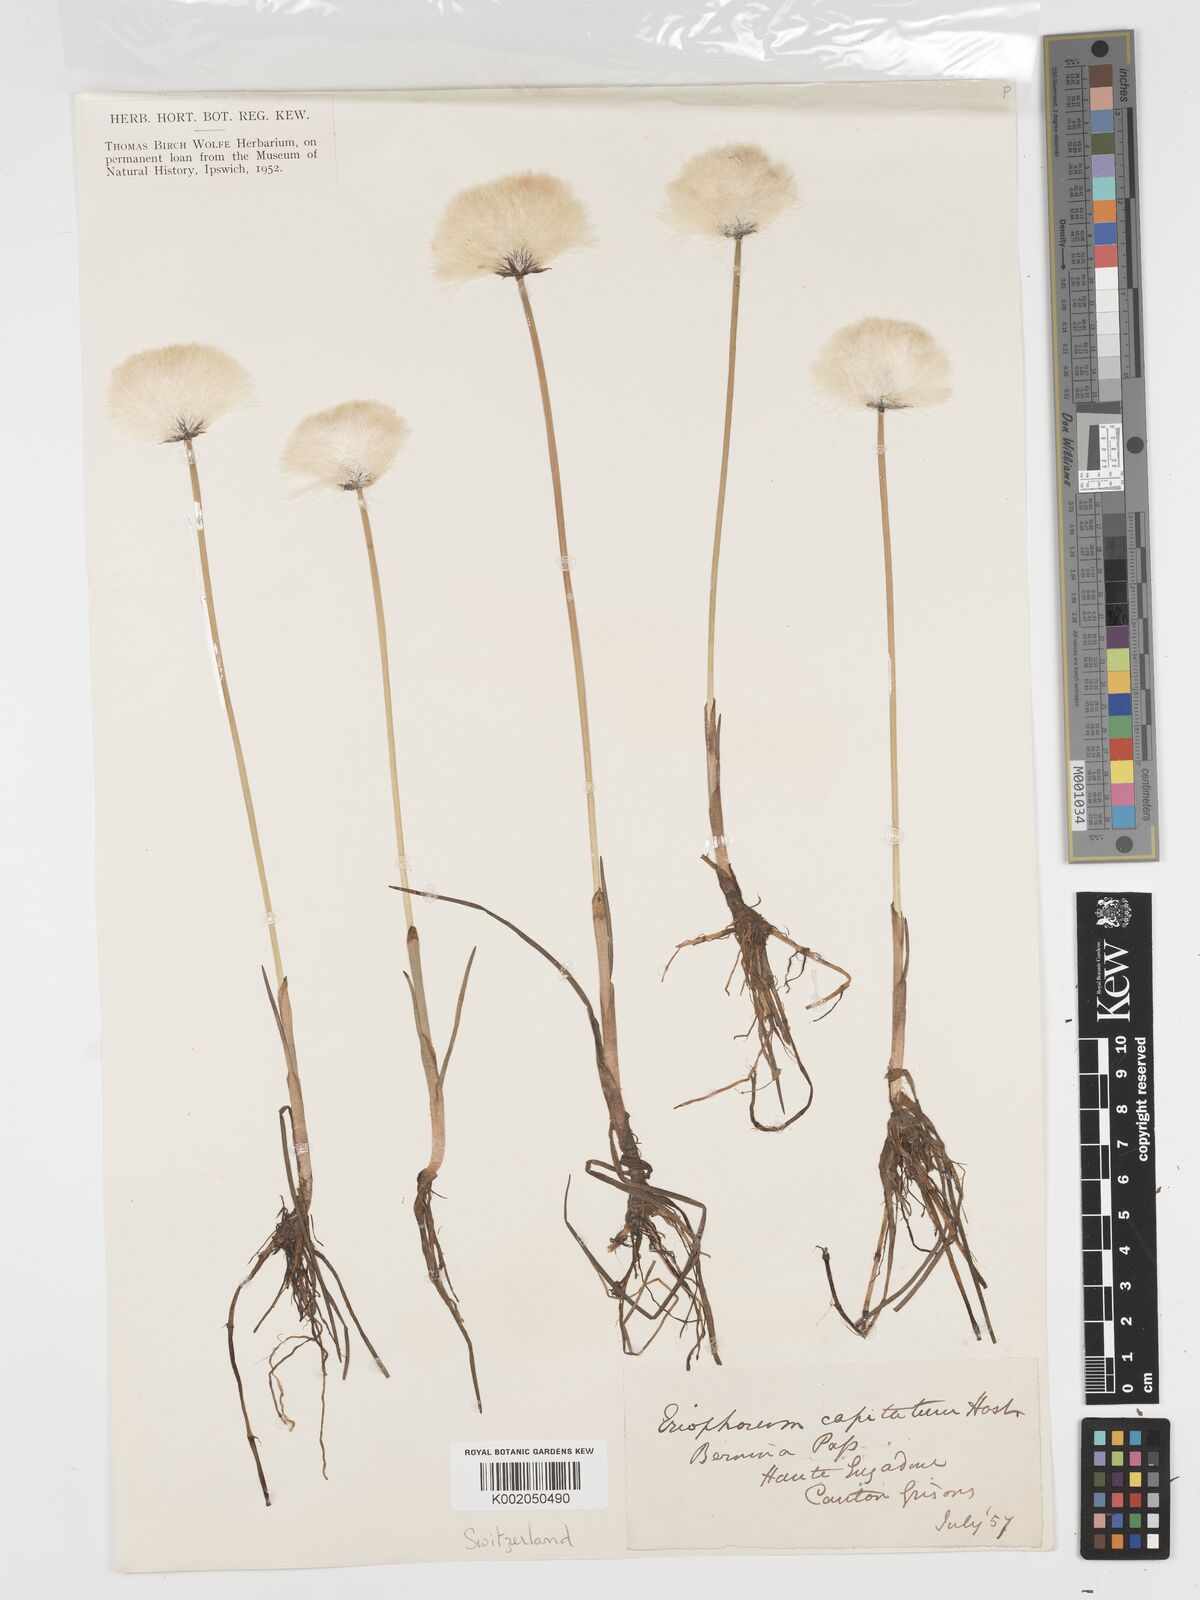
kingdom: Plantae
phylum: Tracheophyta
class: Liliopsida
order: Poales
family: Cyperaceae
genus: Eriophorum
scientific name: Eriophorum scheuchzeri
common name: Scheuchzer's cottongrass
